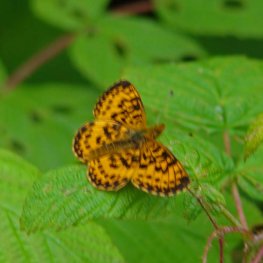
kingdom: Animalia
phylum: Arthropoda
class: Insecta
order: Lepidoptera
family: Nymphalidae
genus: Boloria
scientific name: Boloria selene
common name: Silver-bordered Fritillary
